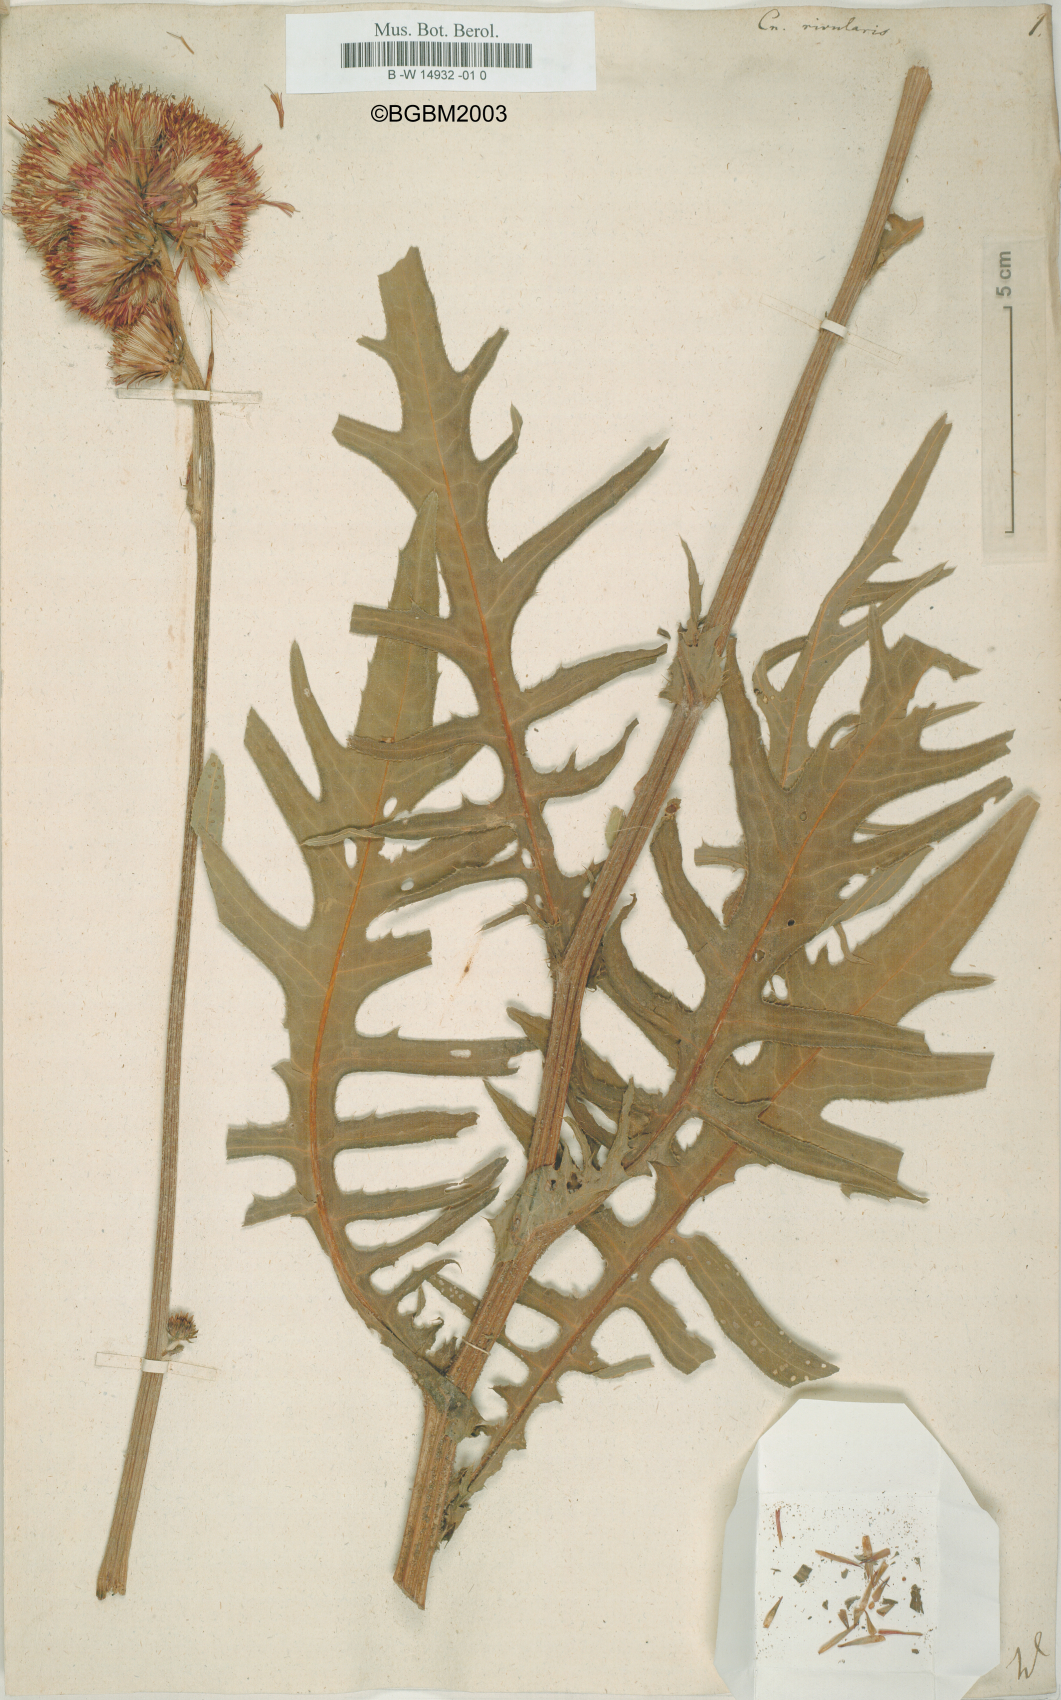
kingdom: Plantae
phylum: Tracheophyta
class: Magnoliopsida
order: Asterales
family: Asteraceae
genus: Cirsium
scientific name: Cirsium
